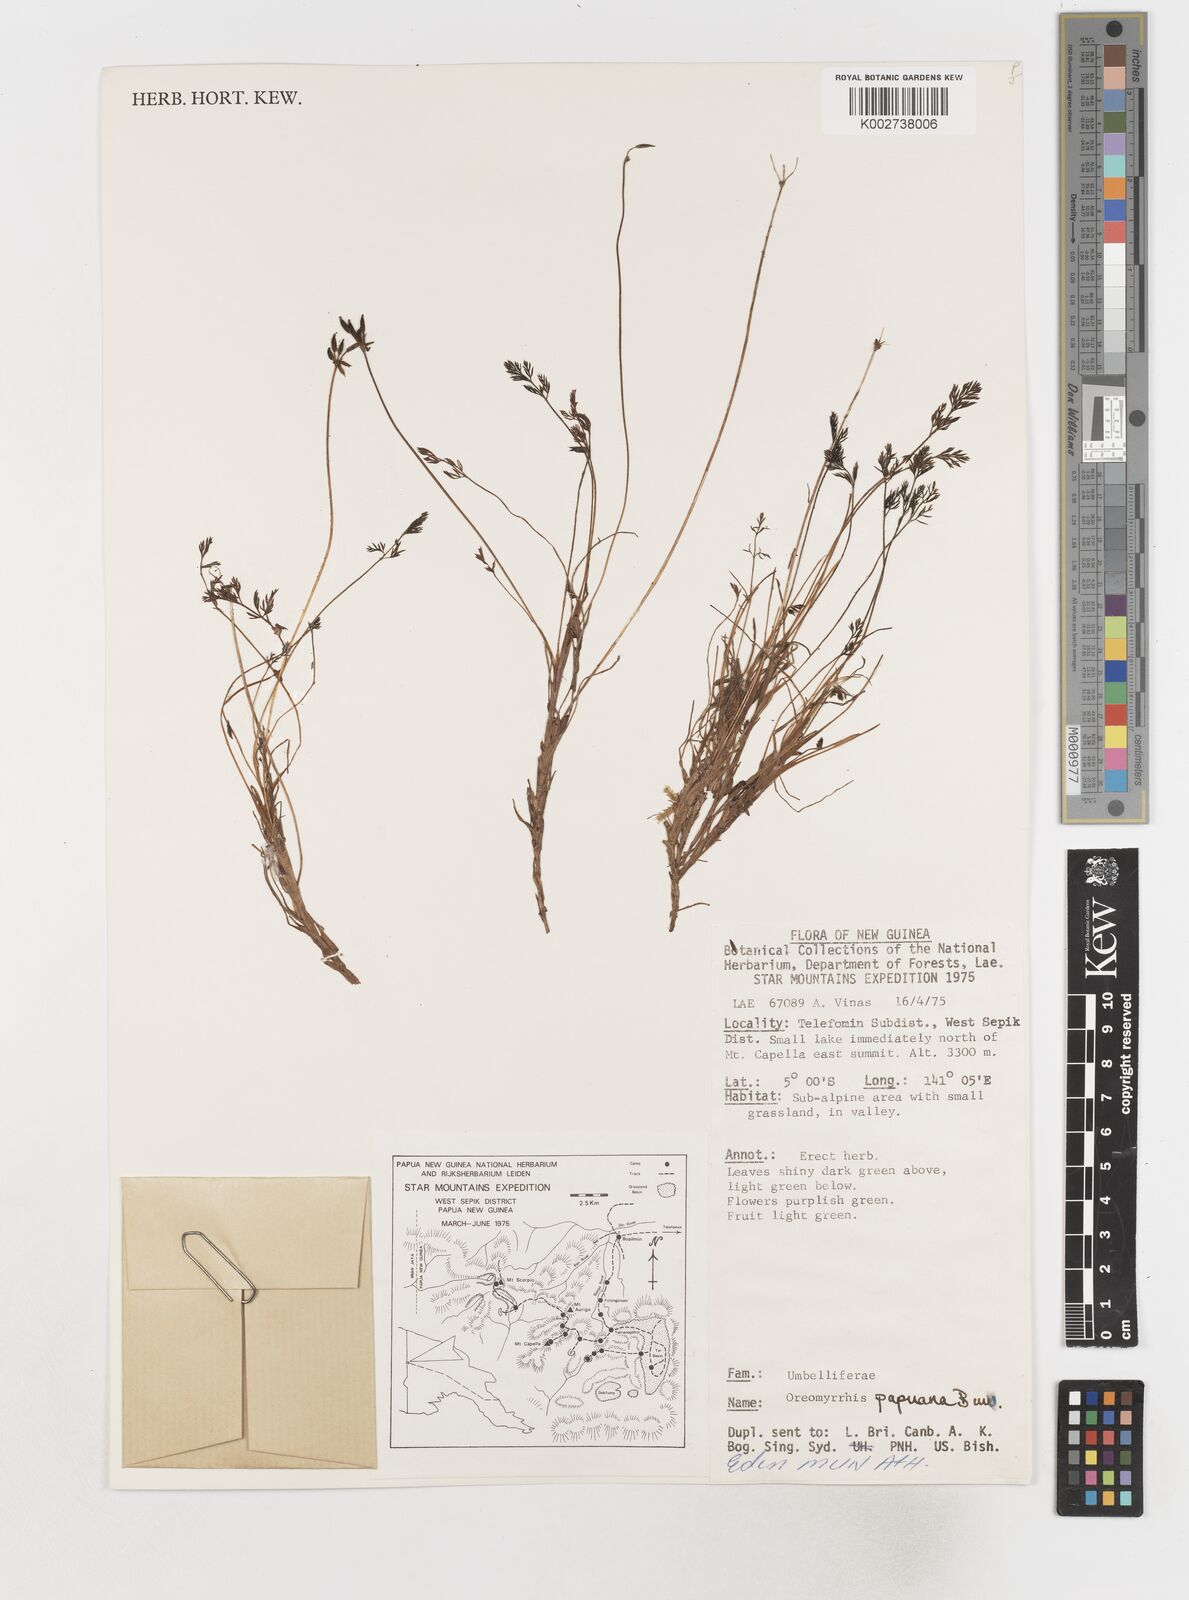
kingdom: Plantae
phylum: Tracheophyta
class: Magnoliopsida
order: Apiales
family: Apiaceae
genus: Chaerophyllum
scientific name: Chaerophyllum papuanum
